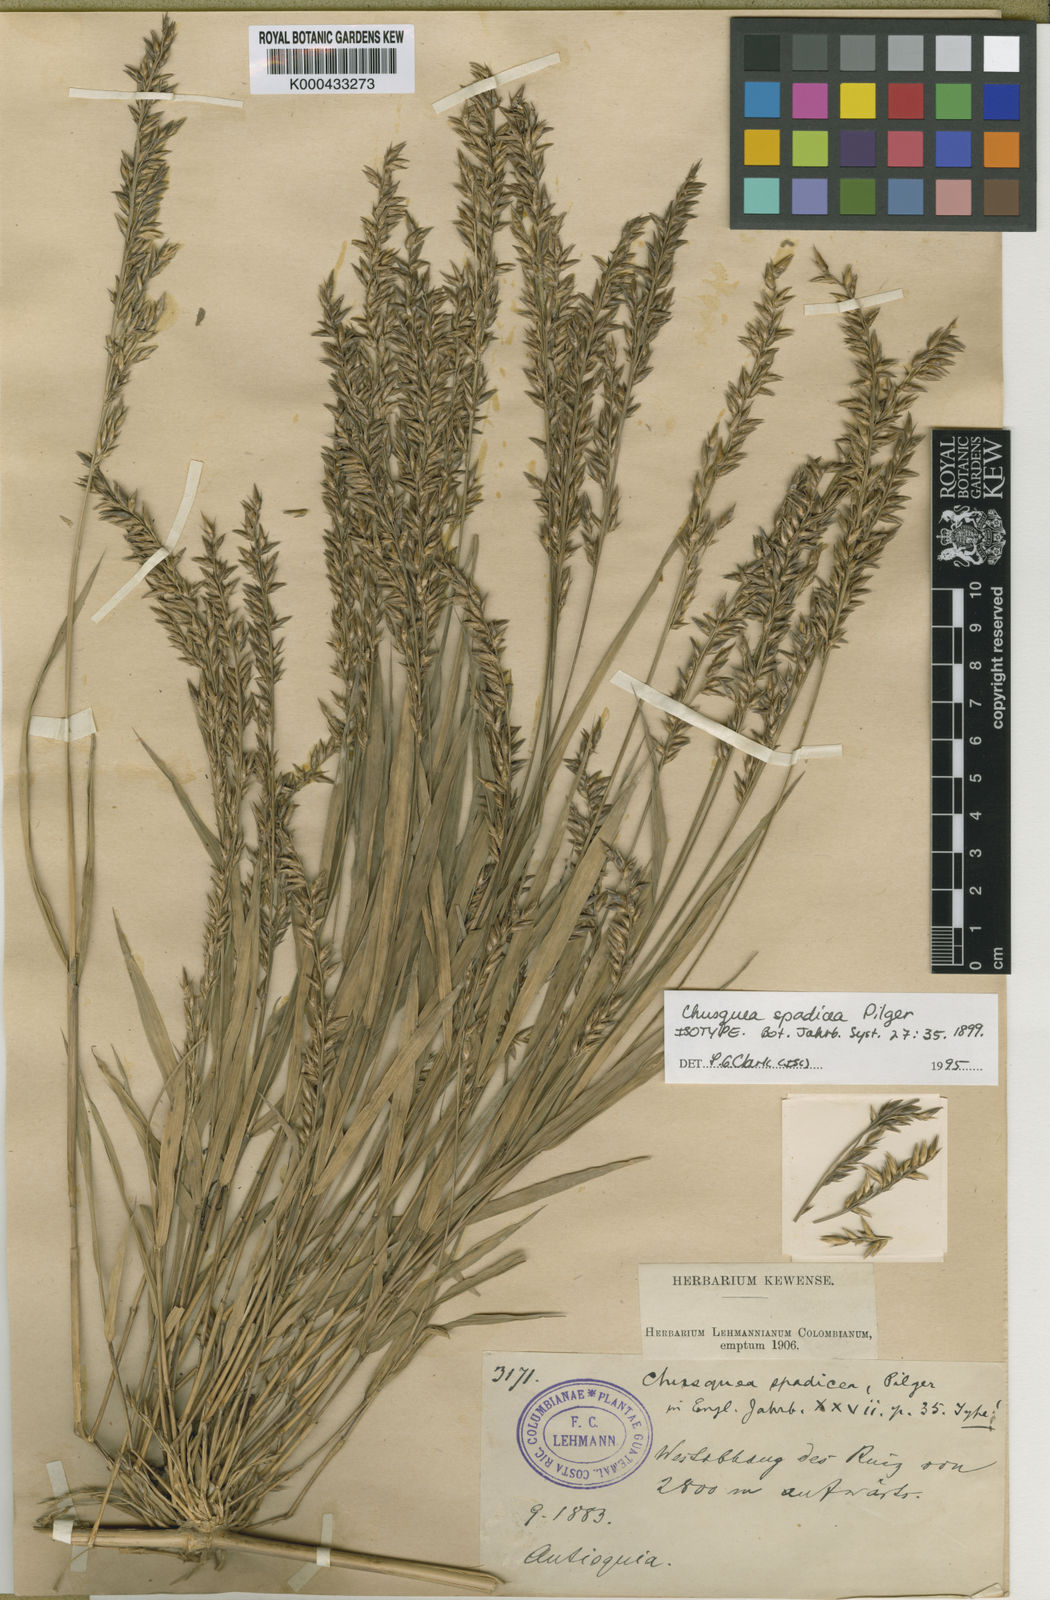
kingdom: Plantae
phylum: Tracheophyta
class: Liliopsida
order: Poales
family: Poaceae
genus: Chusquea
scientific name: Chusquea serrulata
